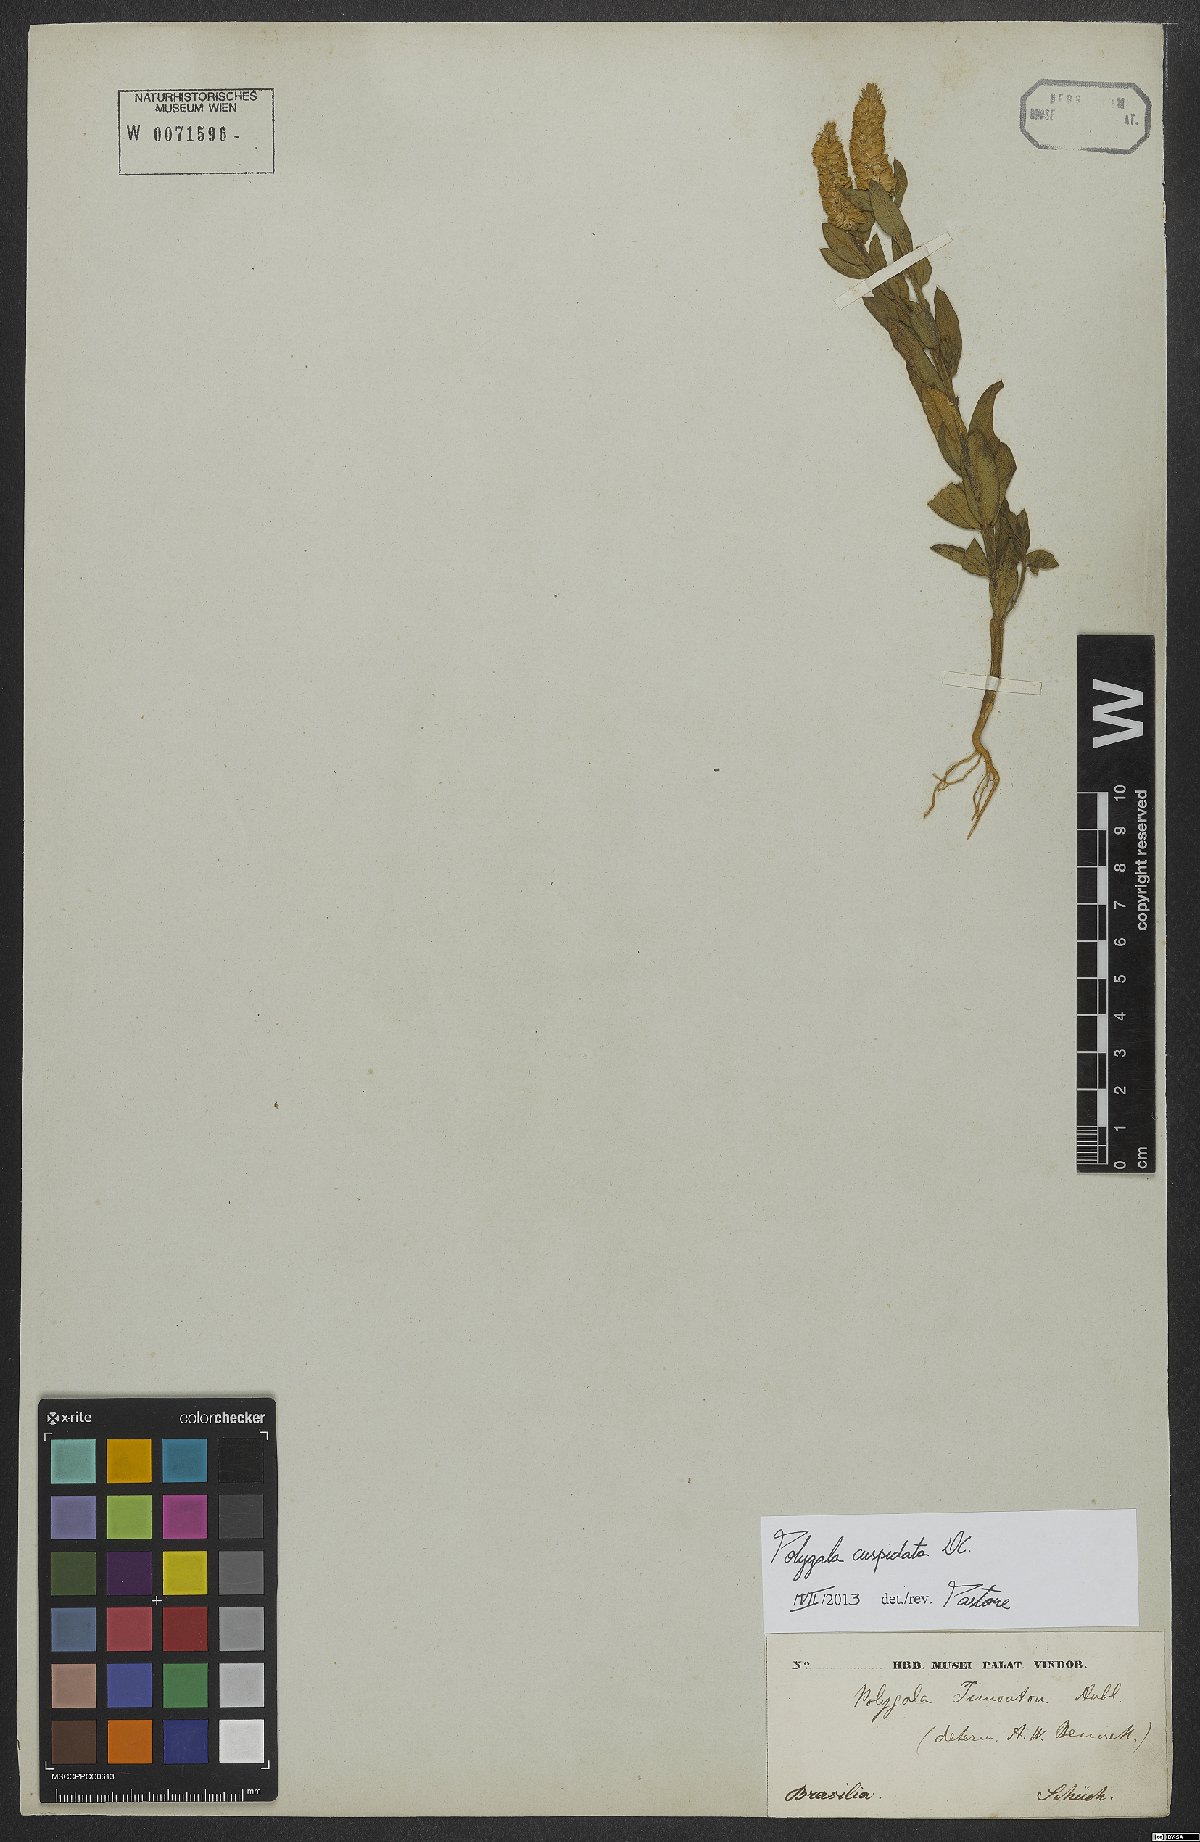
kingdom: Plantae
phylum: Tracheophyta
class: Magnoliopsida
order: Fabales
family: Polygalaceae
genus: Polygala
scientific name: Polygala cuspidata
